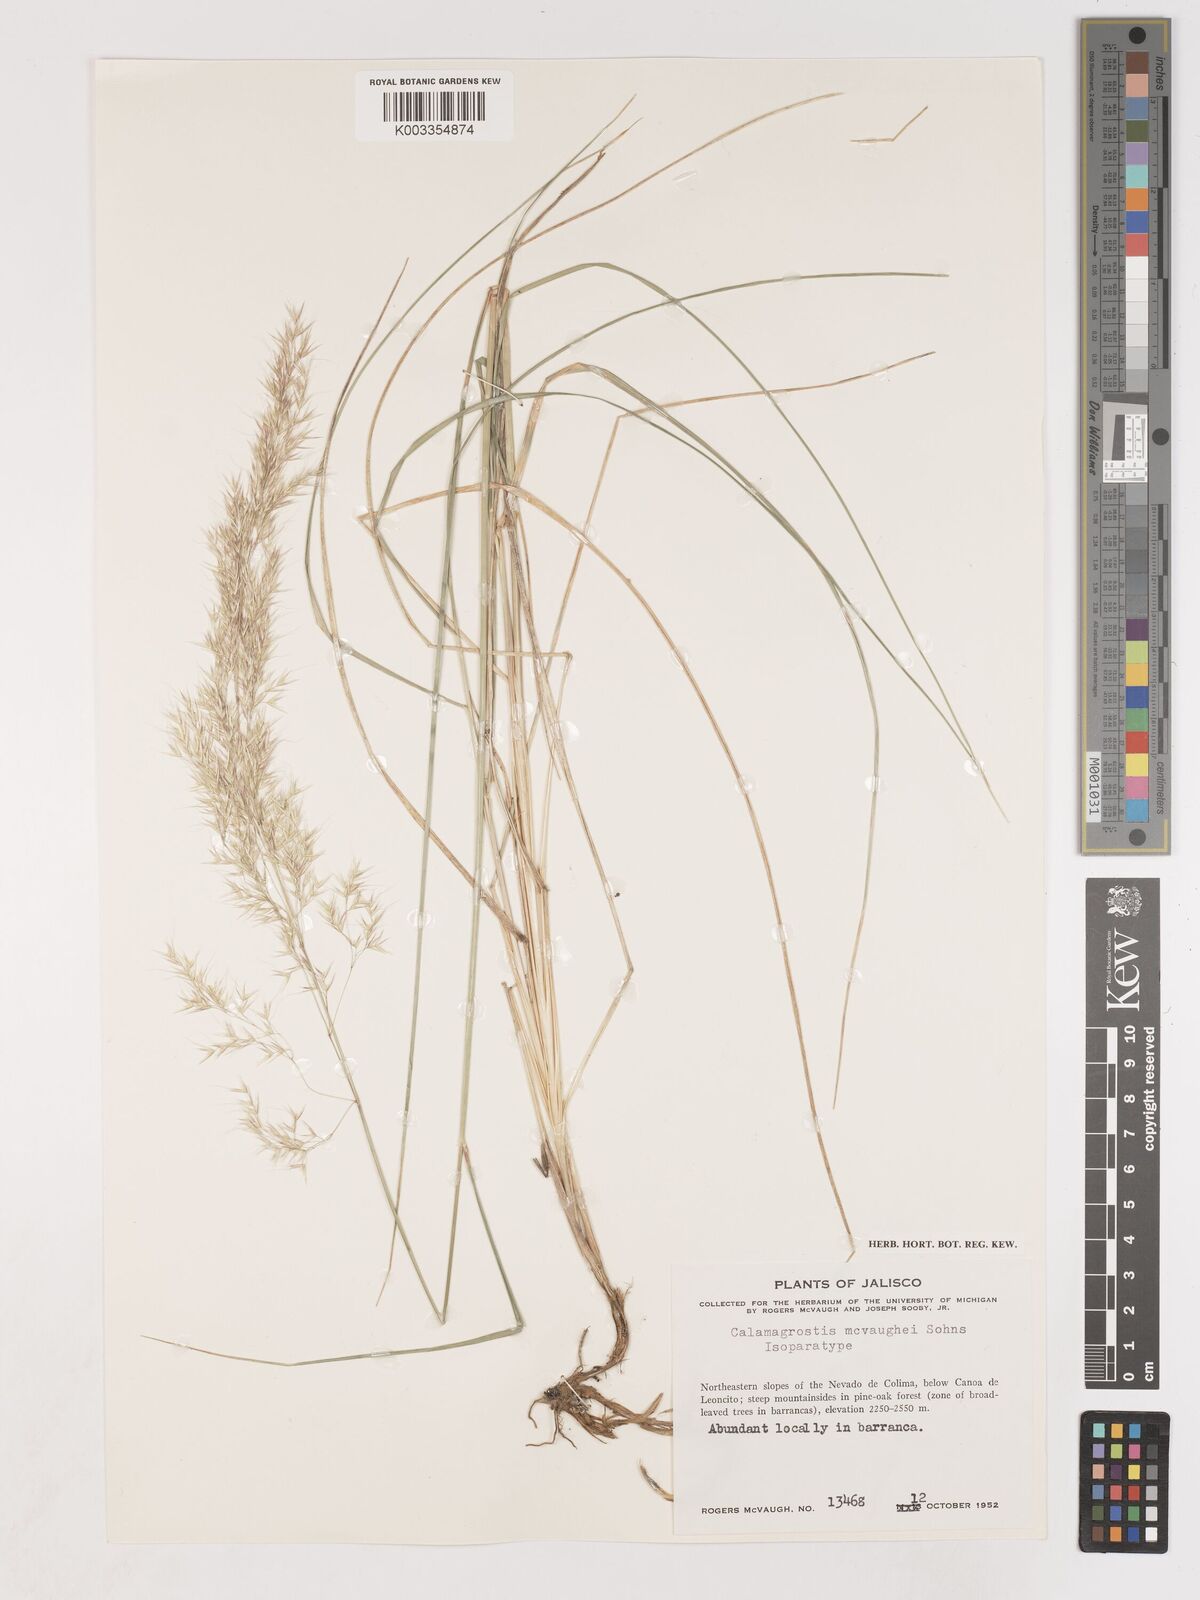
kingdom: Plantae
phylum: Tracheophyta
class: Liliopsida
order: Poales
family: Poaceae
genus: Calamagrostis
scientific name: Calamagrostis Deyeuxia valida
